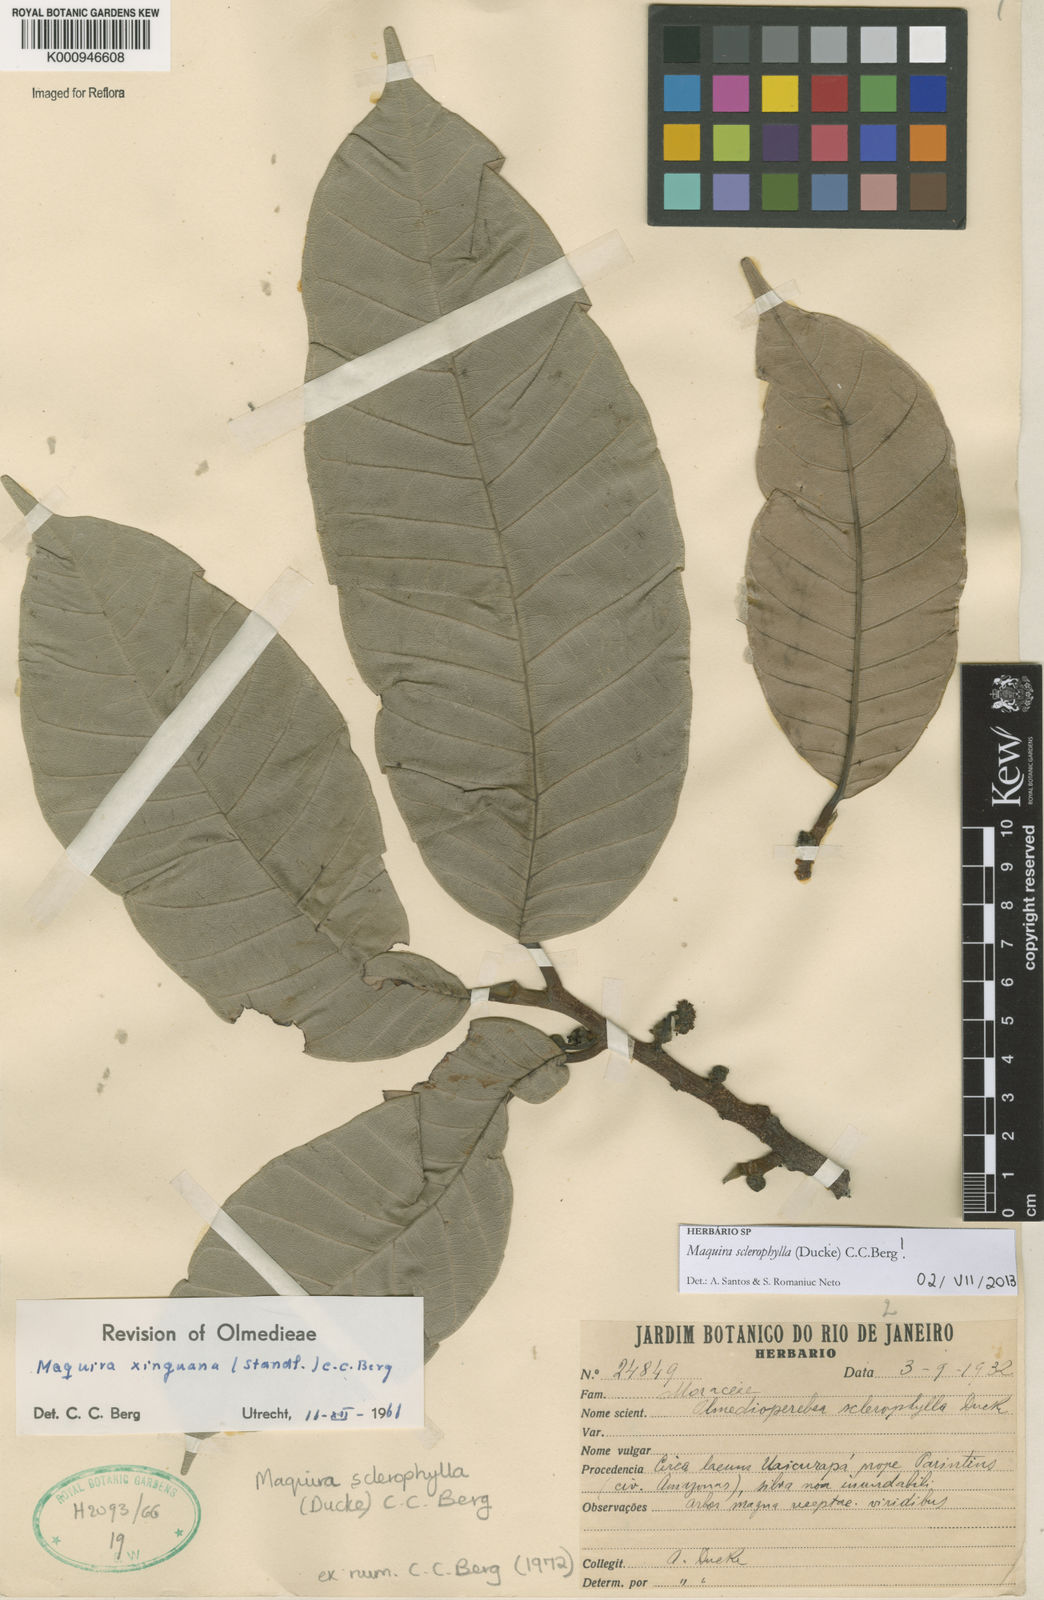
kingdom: Plantae
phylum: Tracheophyta
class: Magnoliopsida
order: Rosales
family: Moraceae
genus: Maquira
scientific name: Maquira sclerophylla
